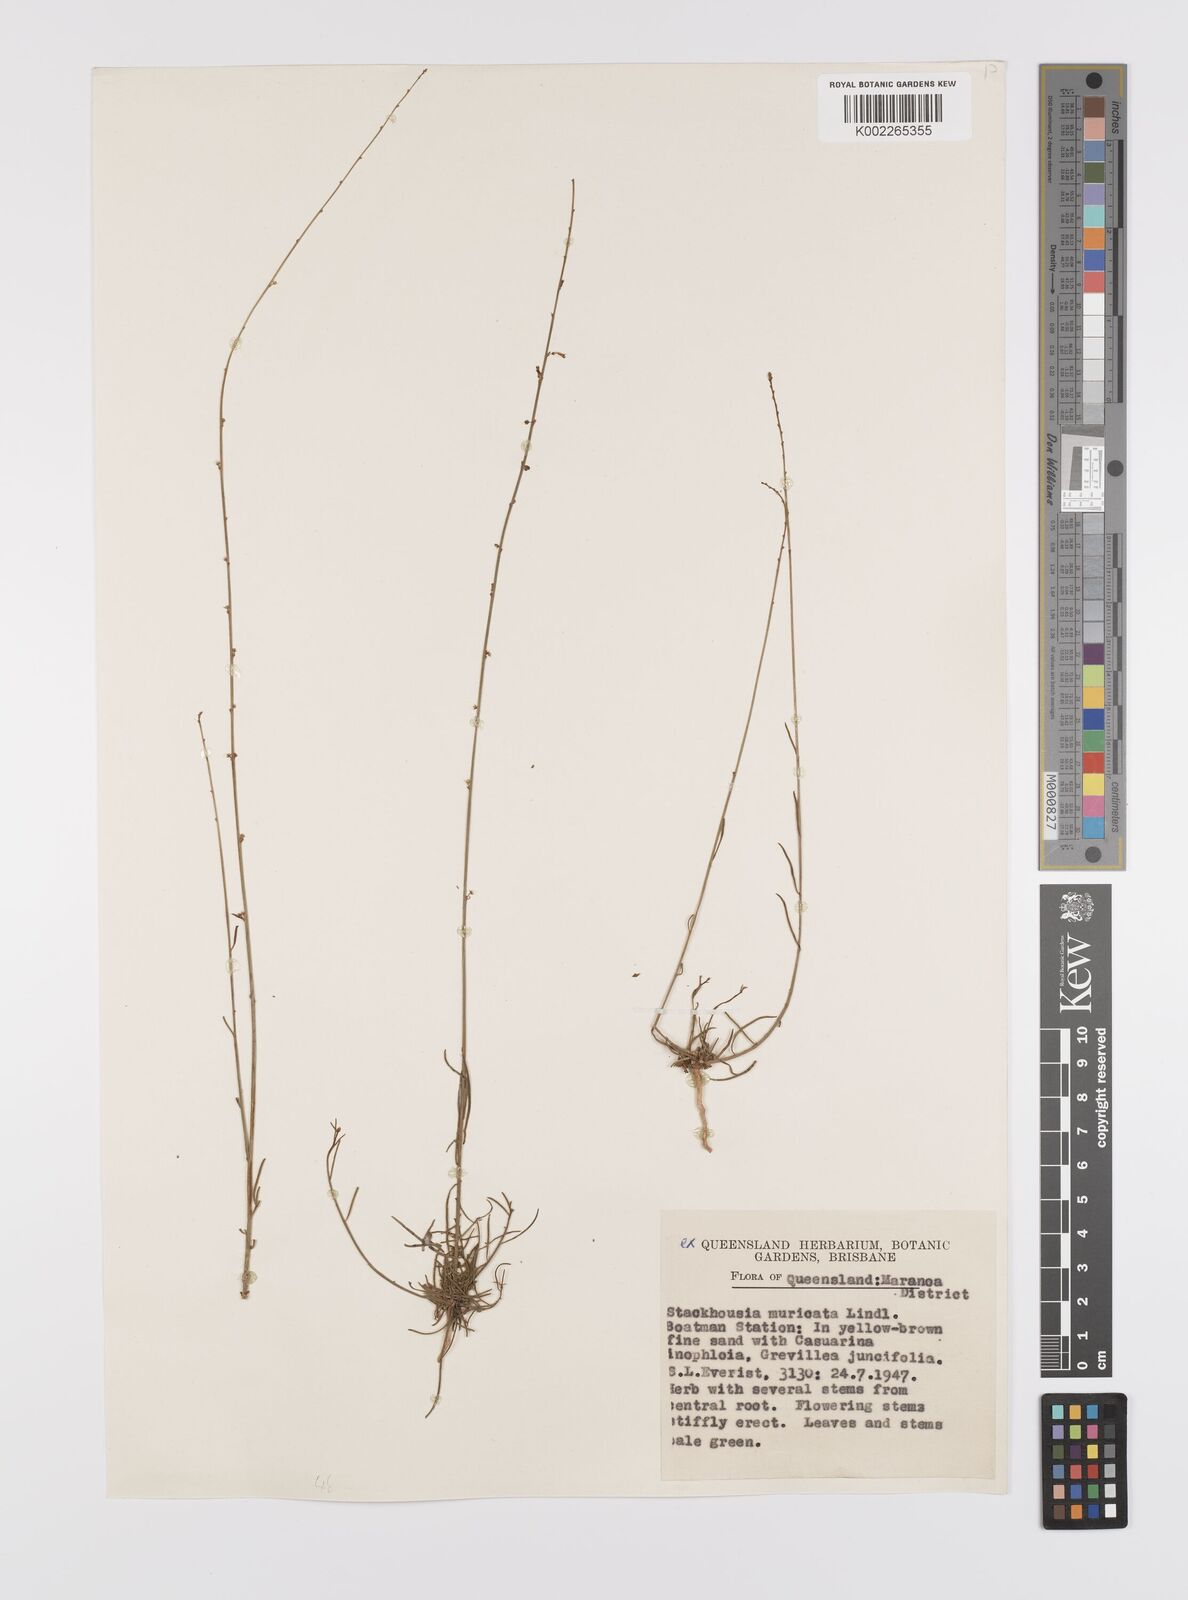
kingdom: Plantae
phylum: Tracheophyta
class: Magnoliopsida
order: Celastrales
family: Celastraceae
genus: Stackhousia
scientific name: Stackhousia muricata
